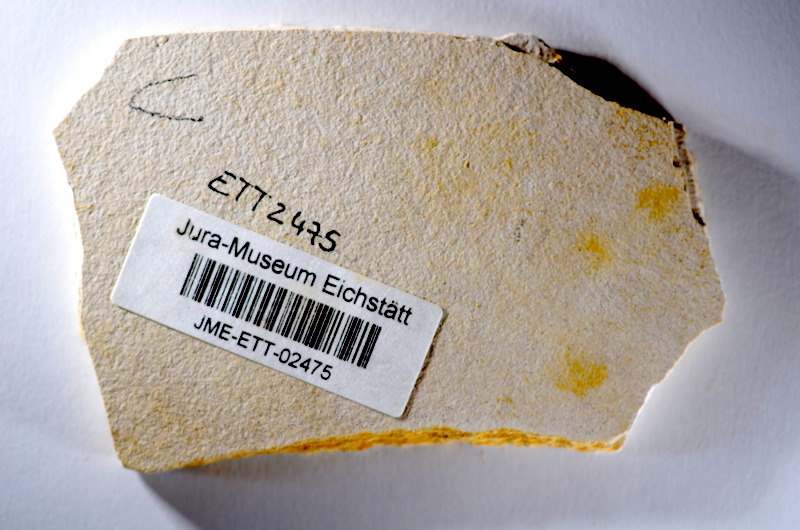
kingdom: Animalia
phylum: Chordata
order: Salmoniformes
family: Orthogonikleithridae
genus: Orthogonikleithrus
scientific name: Orthogonikleithrus hoelli
